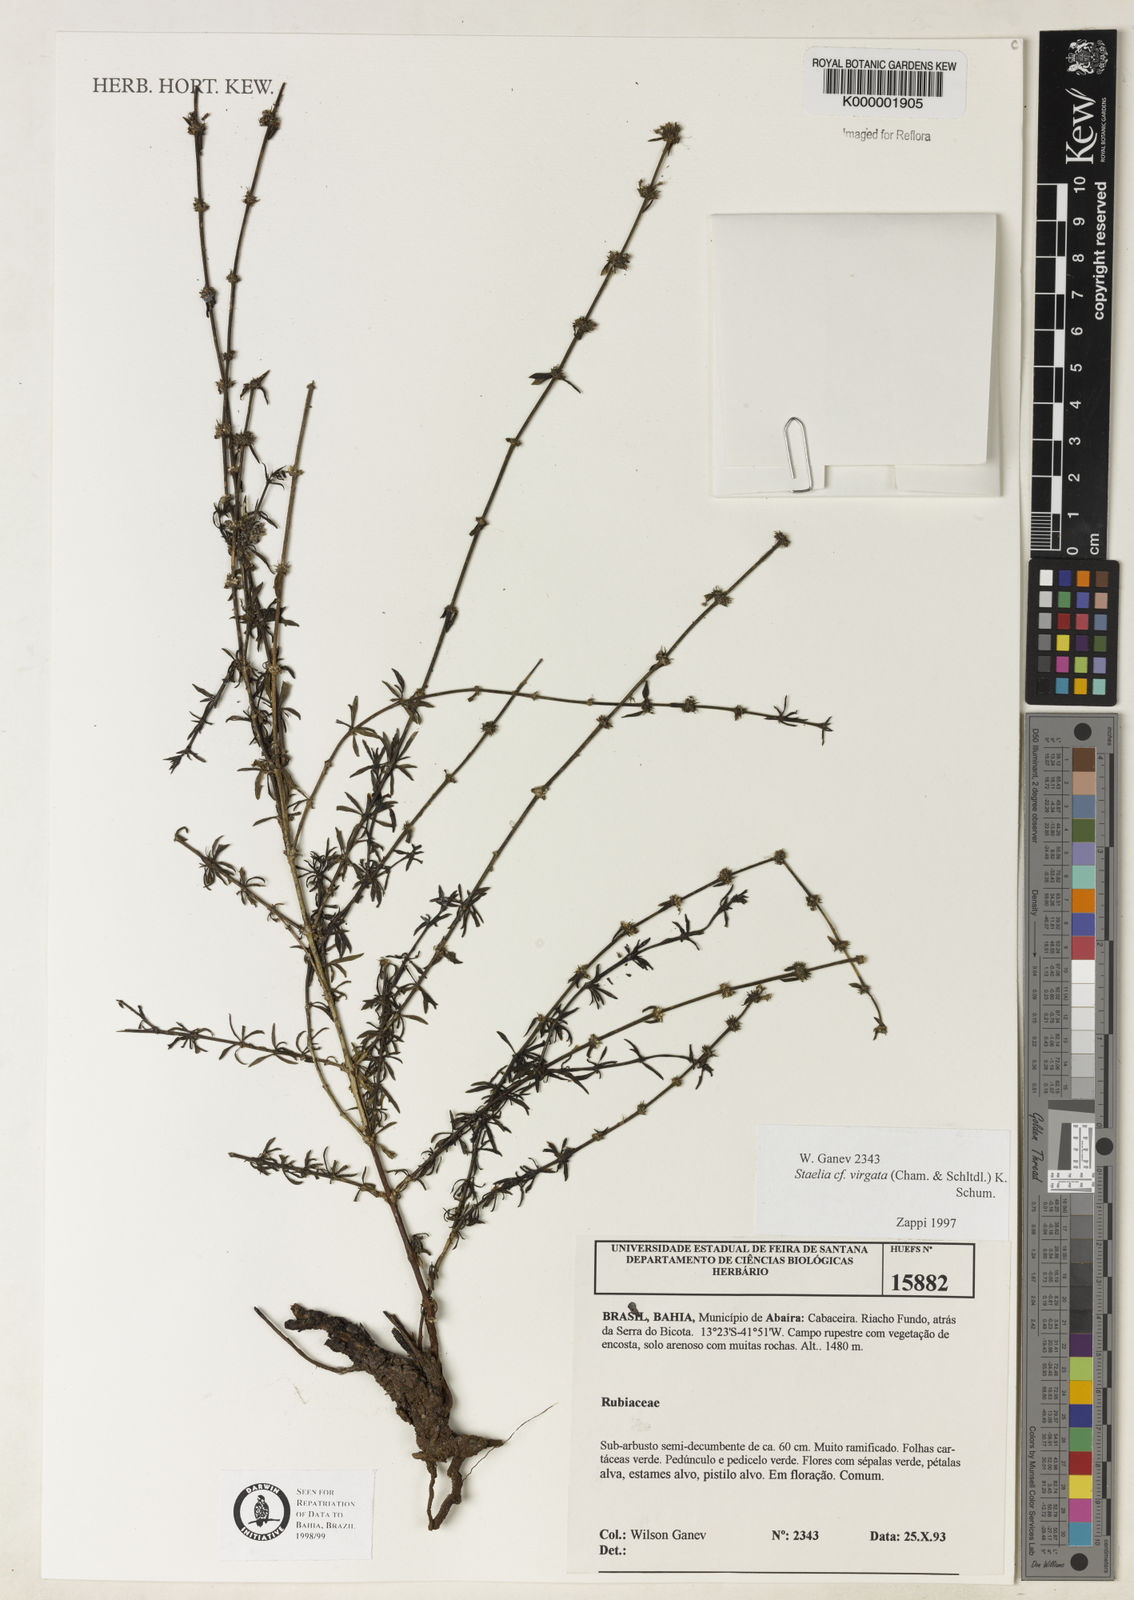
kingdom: Plantae
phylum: Tracheophyta
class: Magnoliopsida
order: Gentianales
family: Rubiaceae
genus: Staelia
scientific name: Staelia virgata
